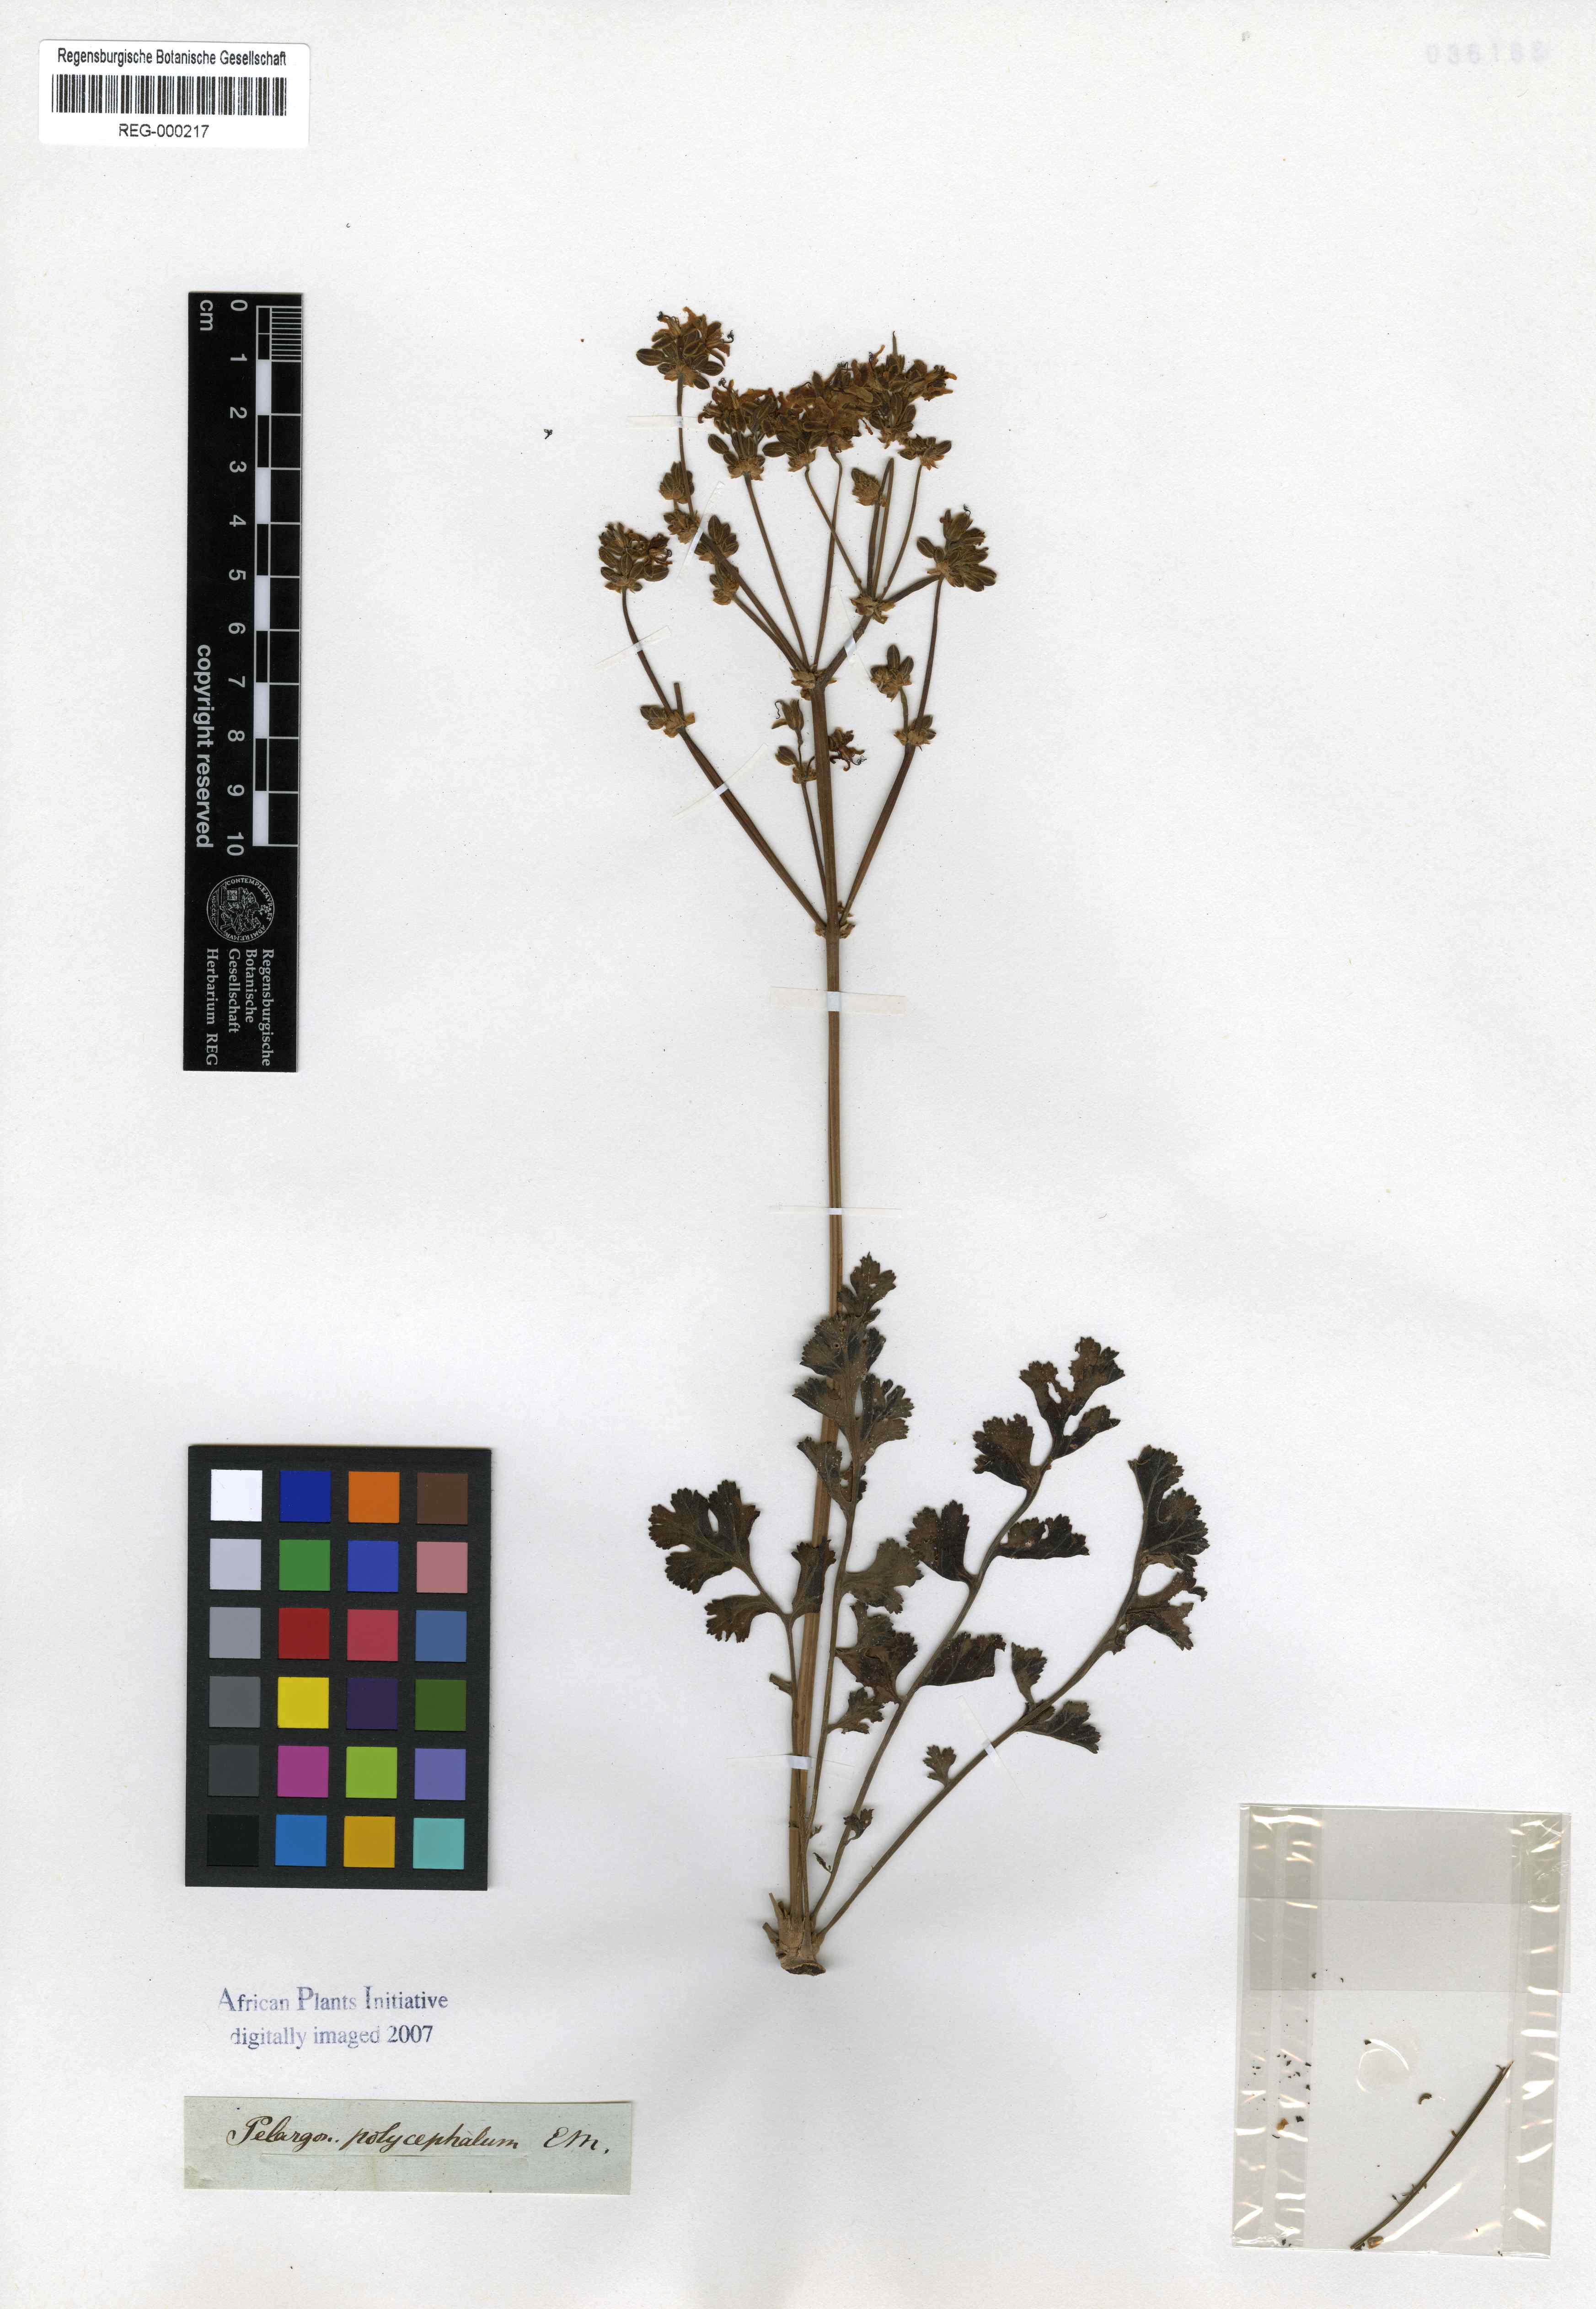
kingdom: Plantae
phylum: Tracheophyta
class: Magnoliopsida
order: Geraniales
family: Geraniaceae
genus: Pelargonium
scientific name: Pelargonium polycephalum
